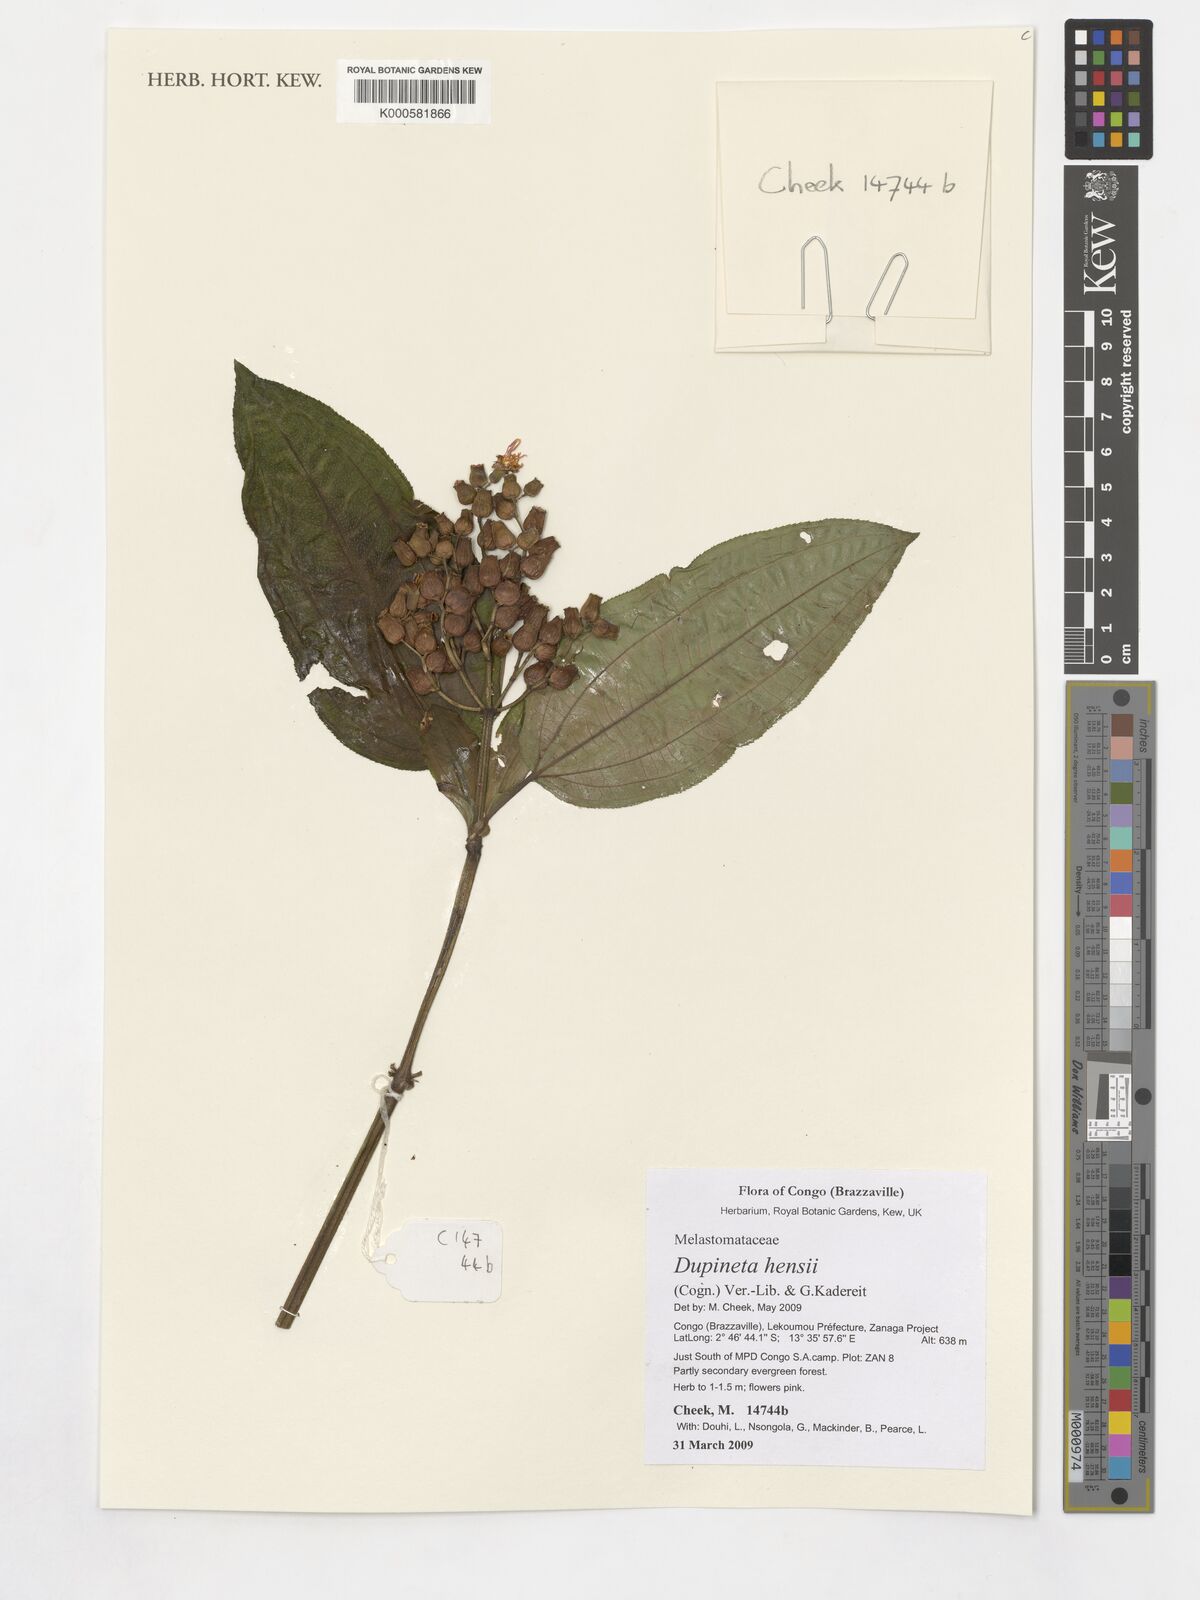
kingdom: Plantae
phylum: Tracheophyta
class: Magnoliopsida
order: Myrtales
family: Melastomataceae
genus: Dupineta
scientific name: Dupineta hensii
